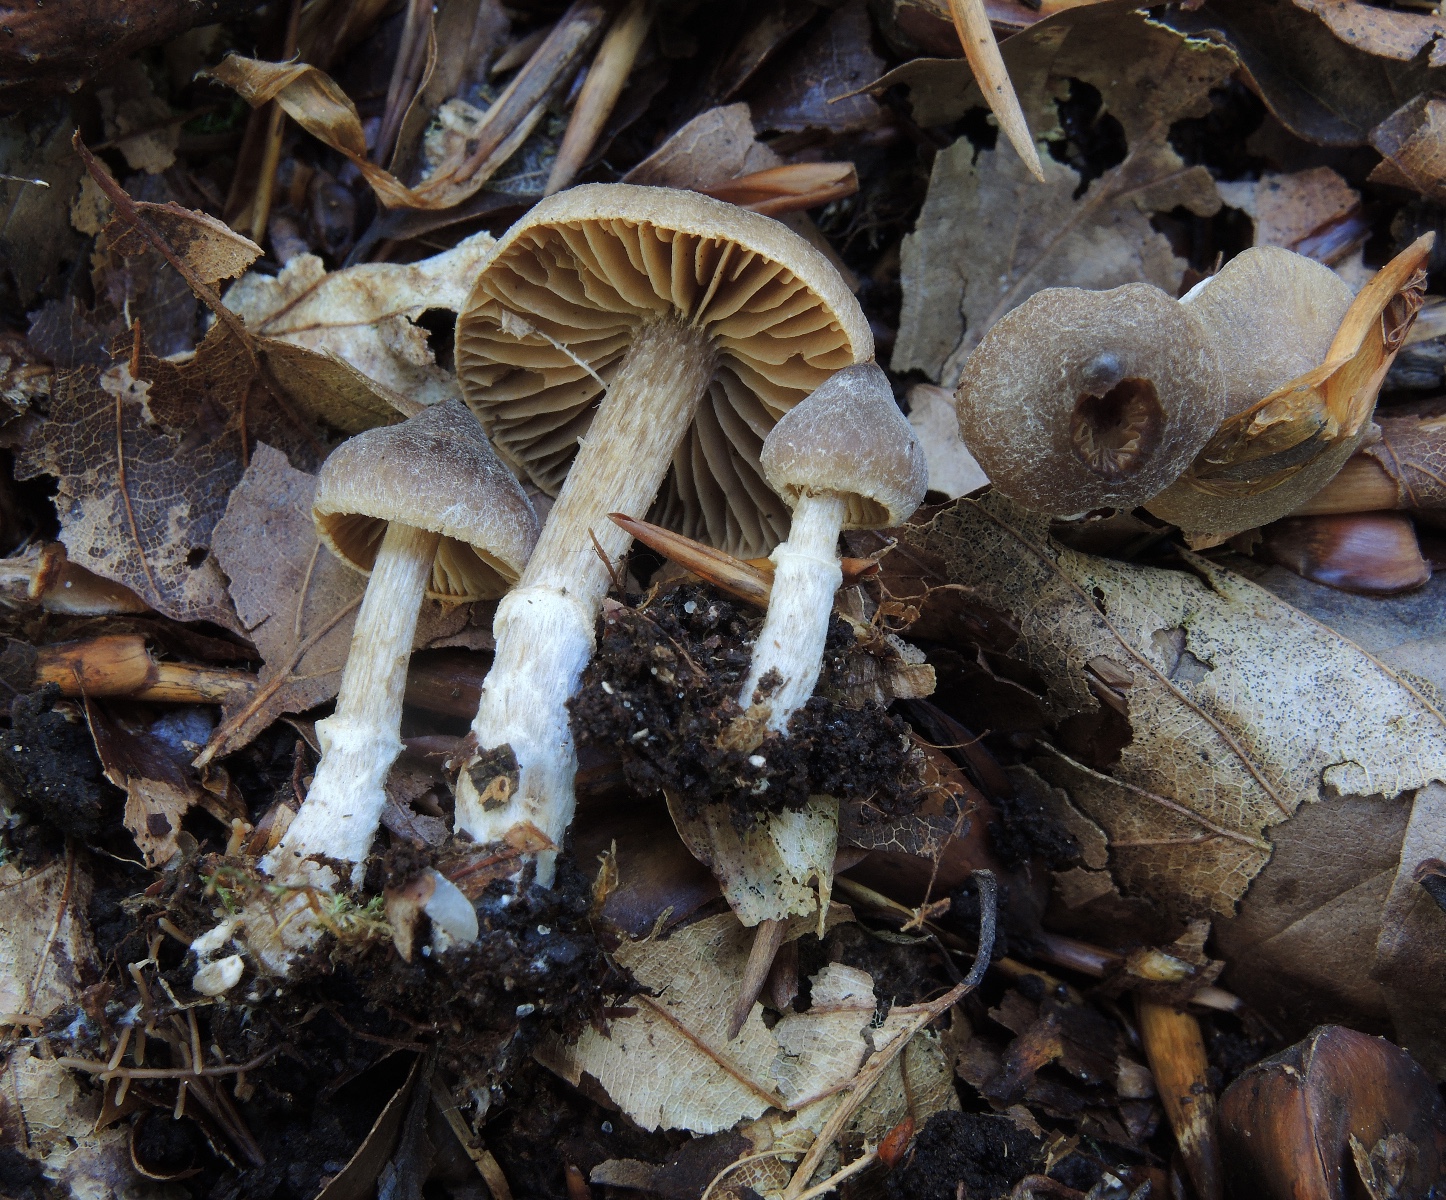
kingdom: Fungi
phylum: Basidiomycota
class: Agaricomycetes
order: Agaricales
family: Cortinariaceae
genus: Cortinarius
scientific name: Cortinarius fuscodiscus
